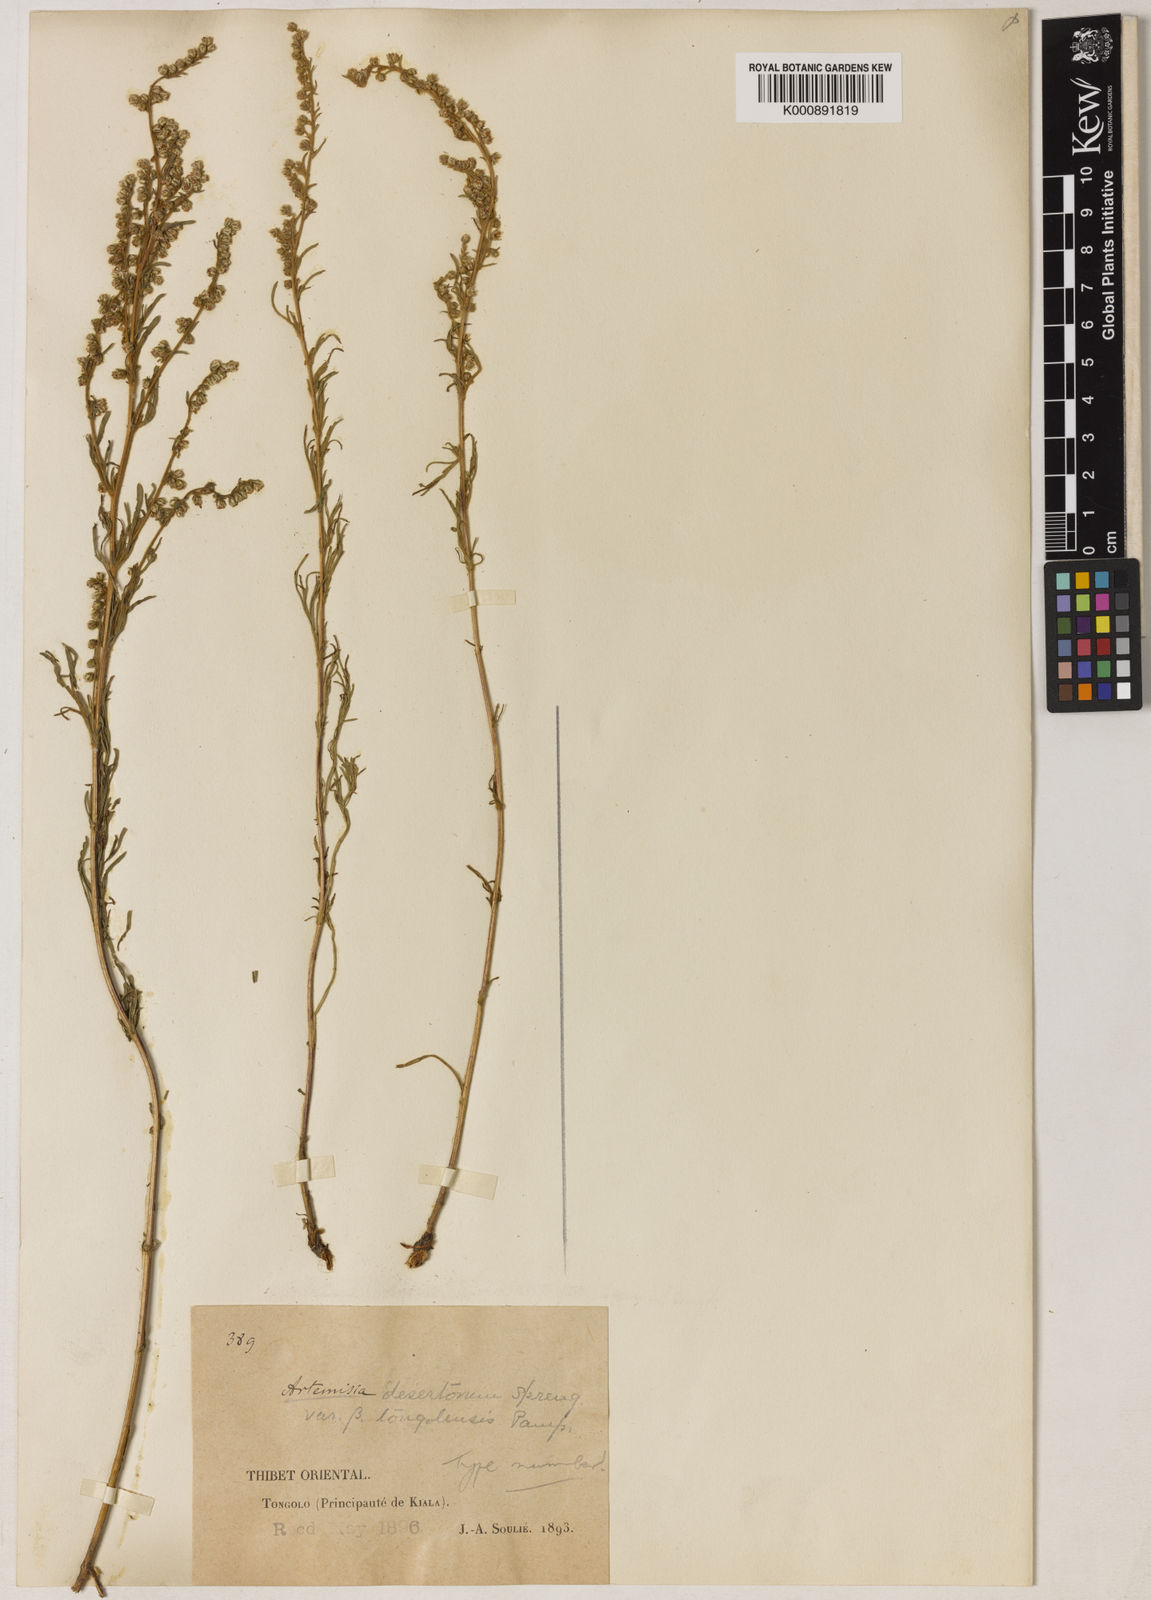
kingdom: Plantae
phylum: Tracheophyta
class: Magnoliopsida
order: Asterales
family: Asteraceae
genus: Artemisia
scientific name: Artemisia desertorum
